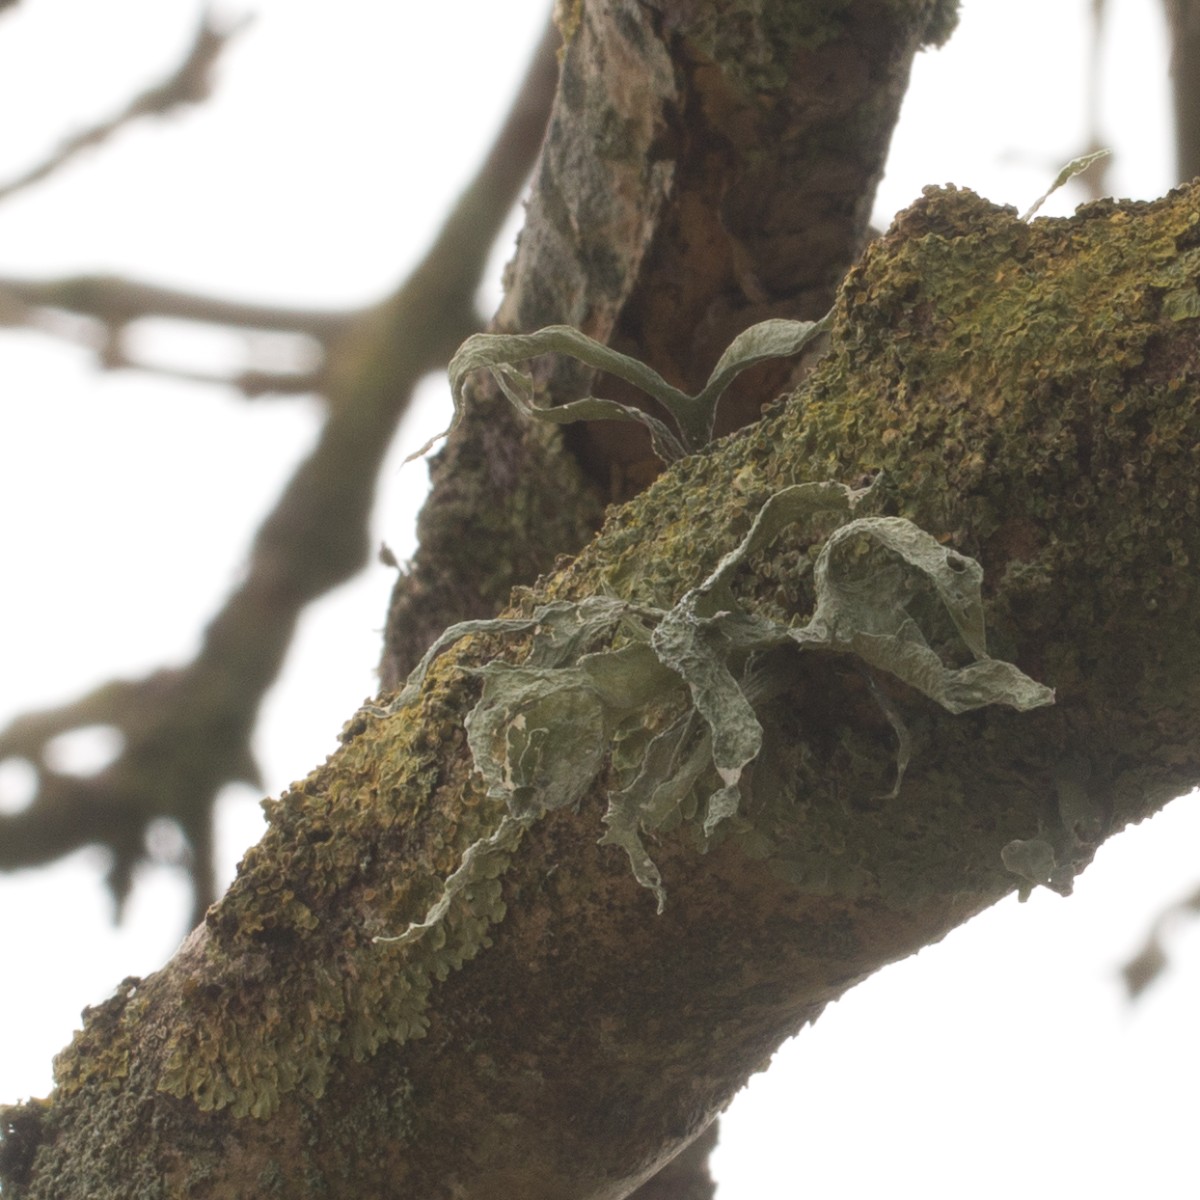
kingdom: Fungi
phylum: Ascomycota
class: Lecanoromycetes
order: Lecanorales
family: Ramalinaceae
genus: Ramalina
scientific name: Ramalina fraxinea
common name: stor grenlav
